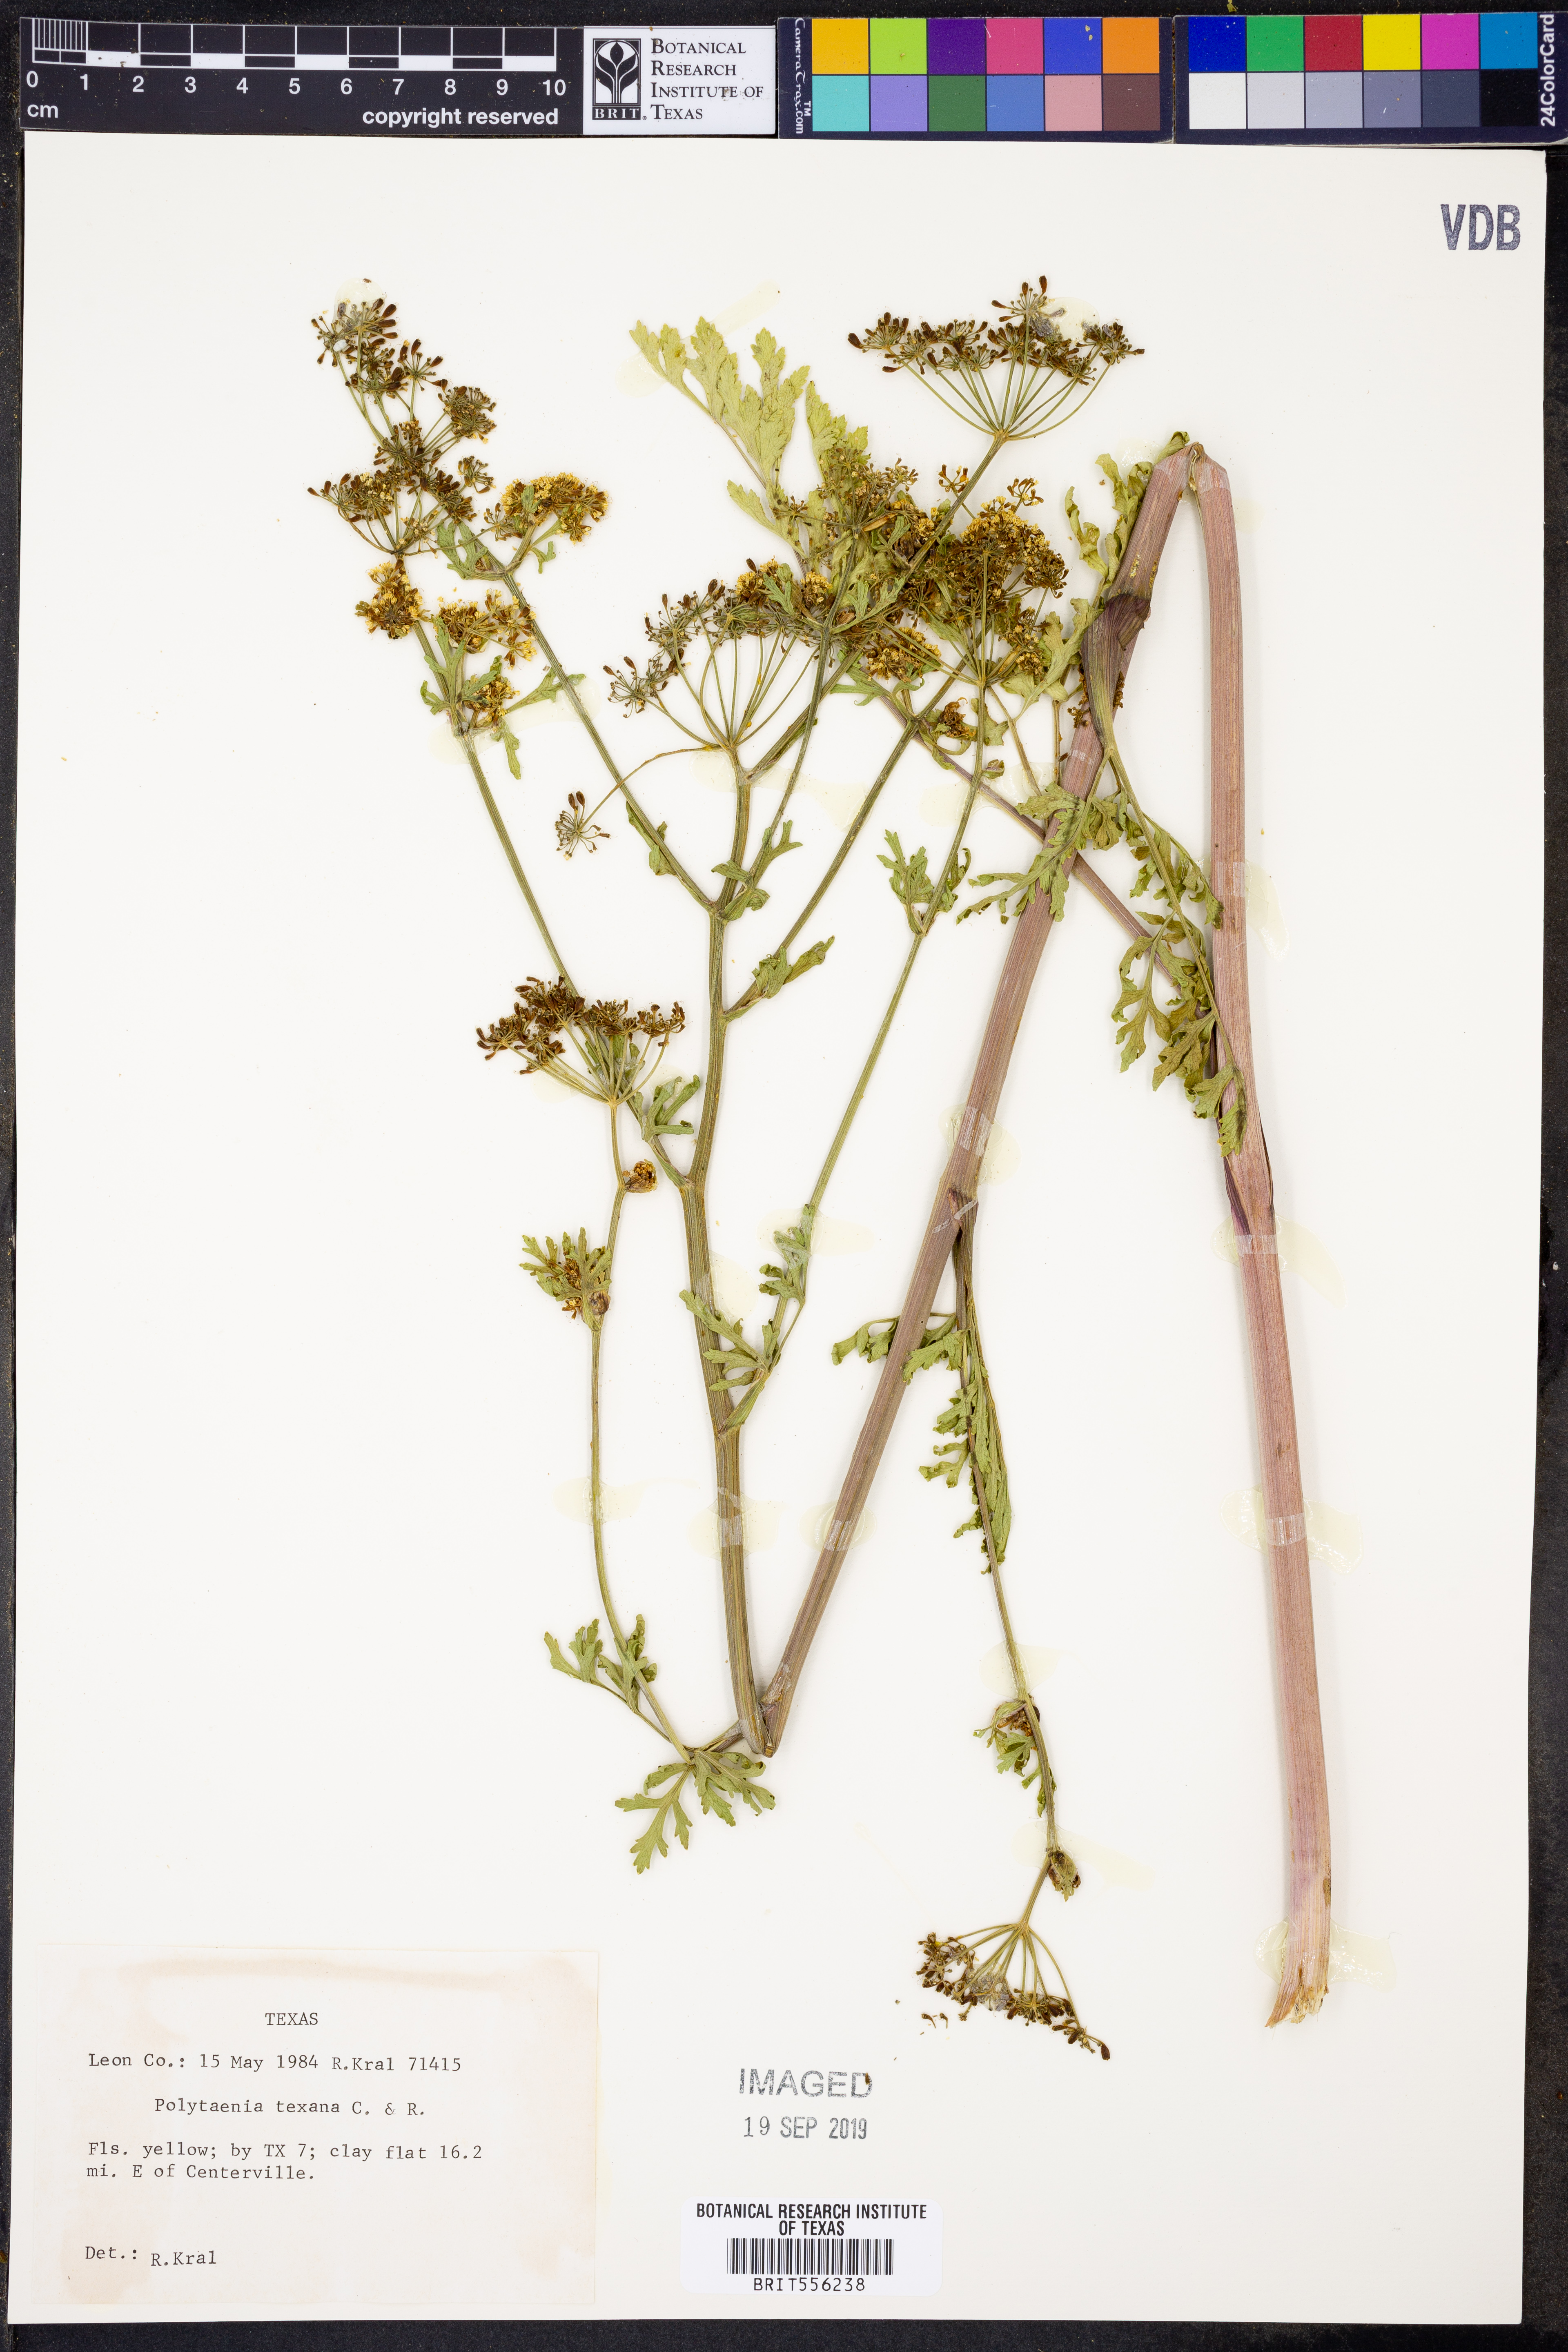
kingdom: Plantae
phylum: Tracheophyta
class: Magnoliopsida
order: Apiales
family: Apiaceae
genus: Polytaenia
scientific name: Polytaenia texana
